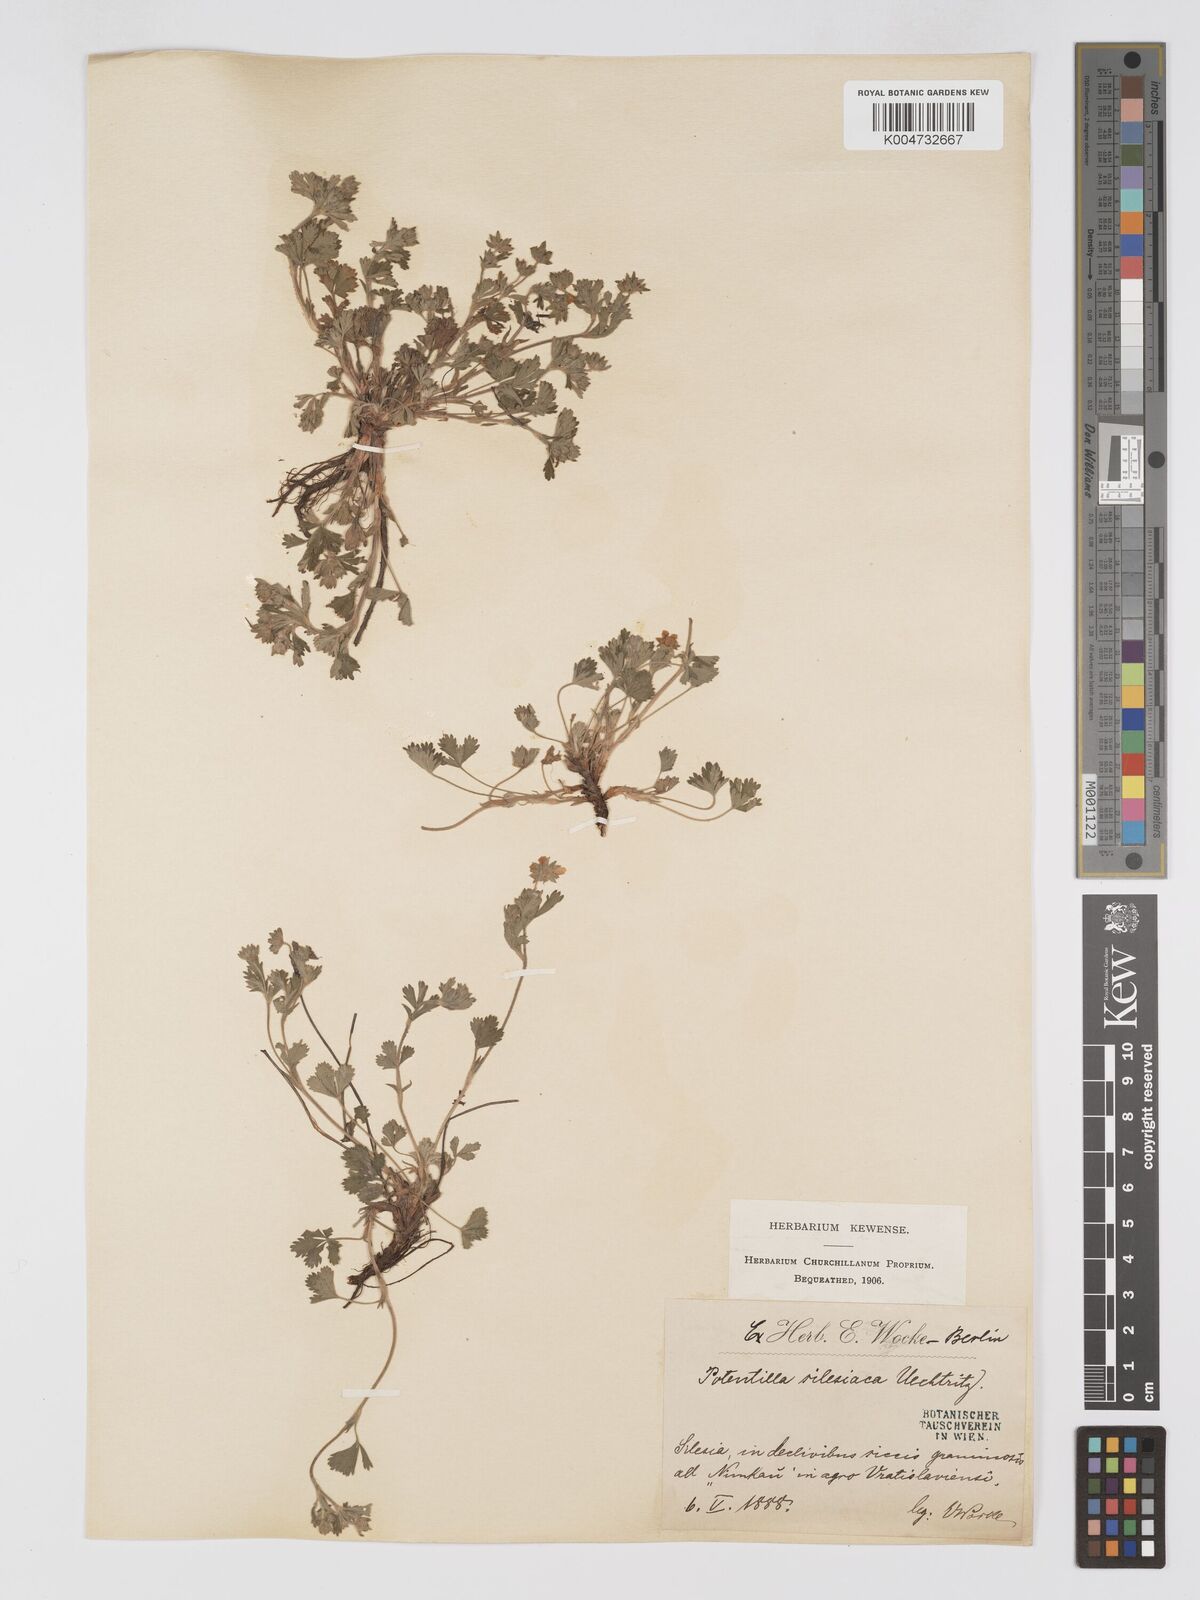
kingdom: Plantae
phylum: Tracheophyta
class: Magnoliopsida
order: Rosales
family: Rosaceae
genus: Potentilla
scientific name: Potentilla cinerea
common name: Ashy cinquefoil
